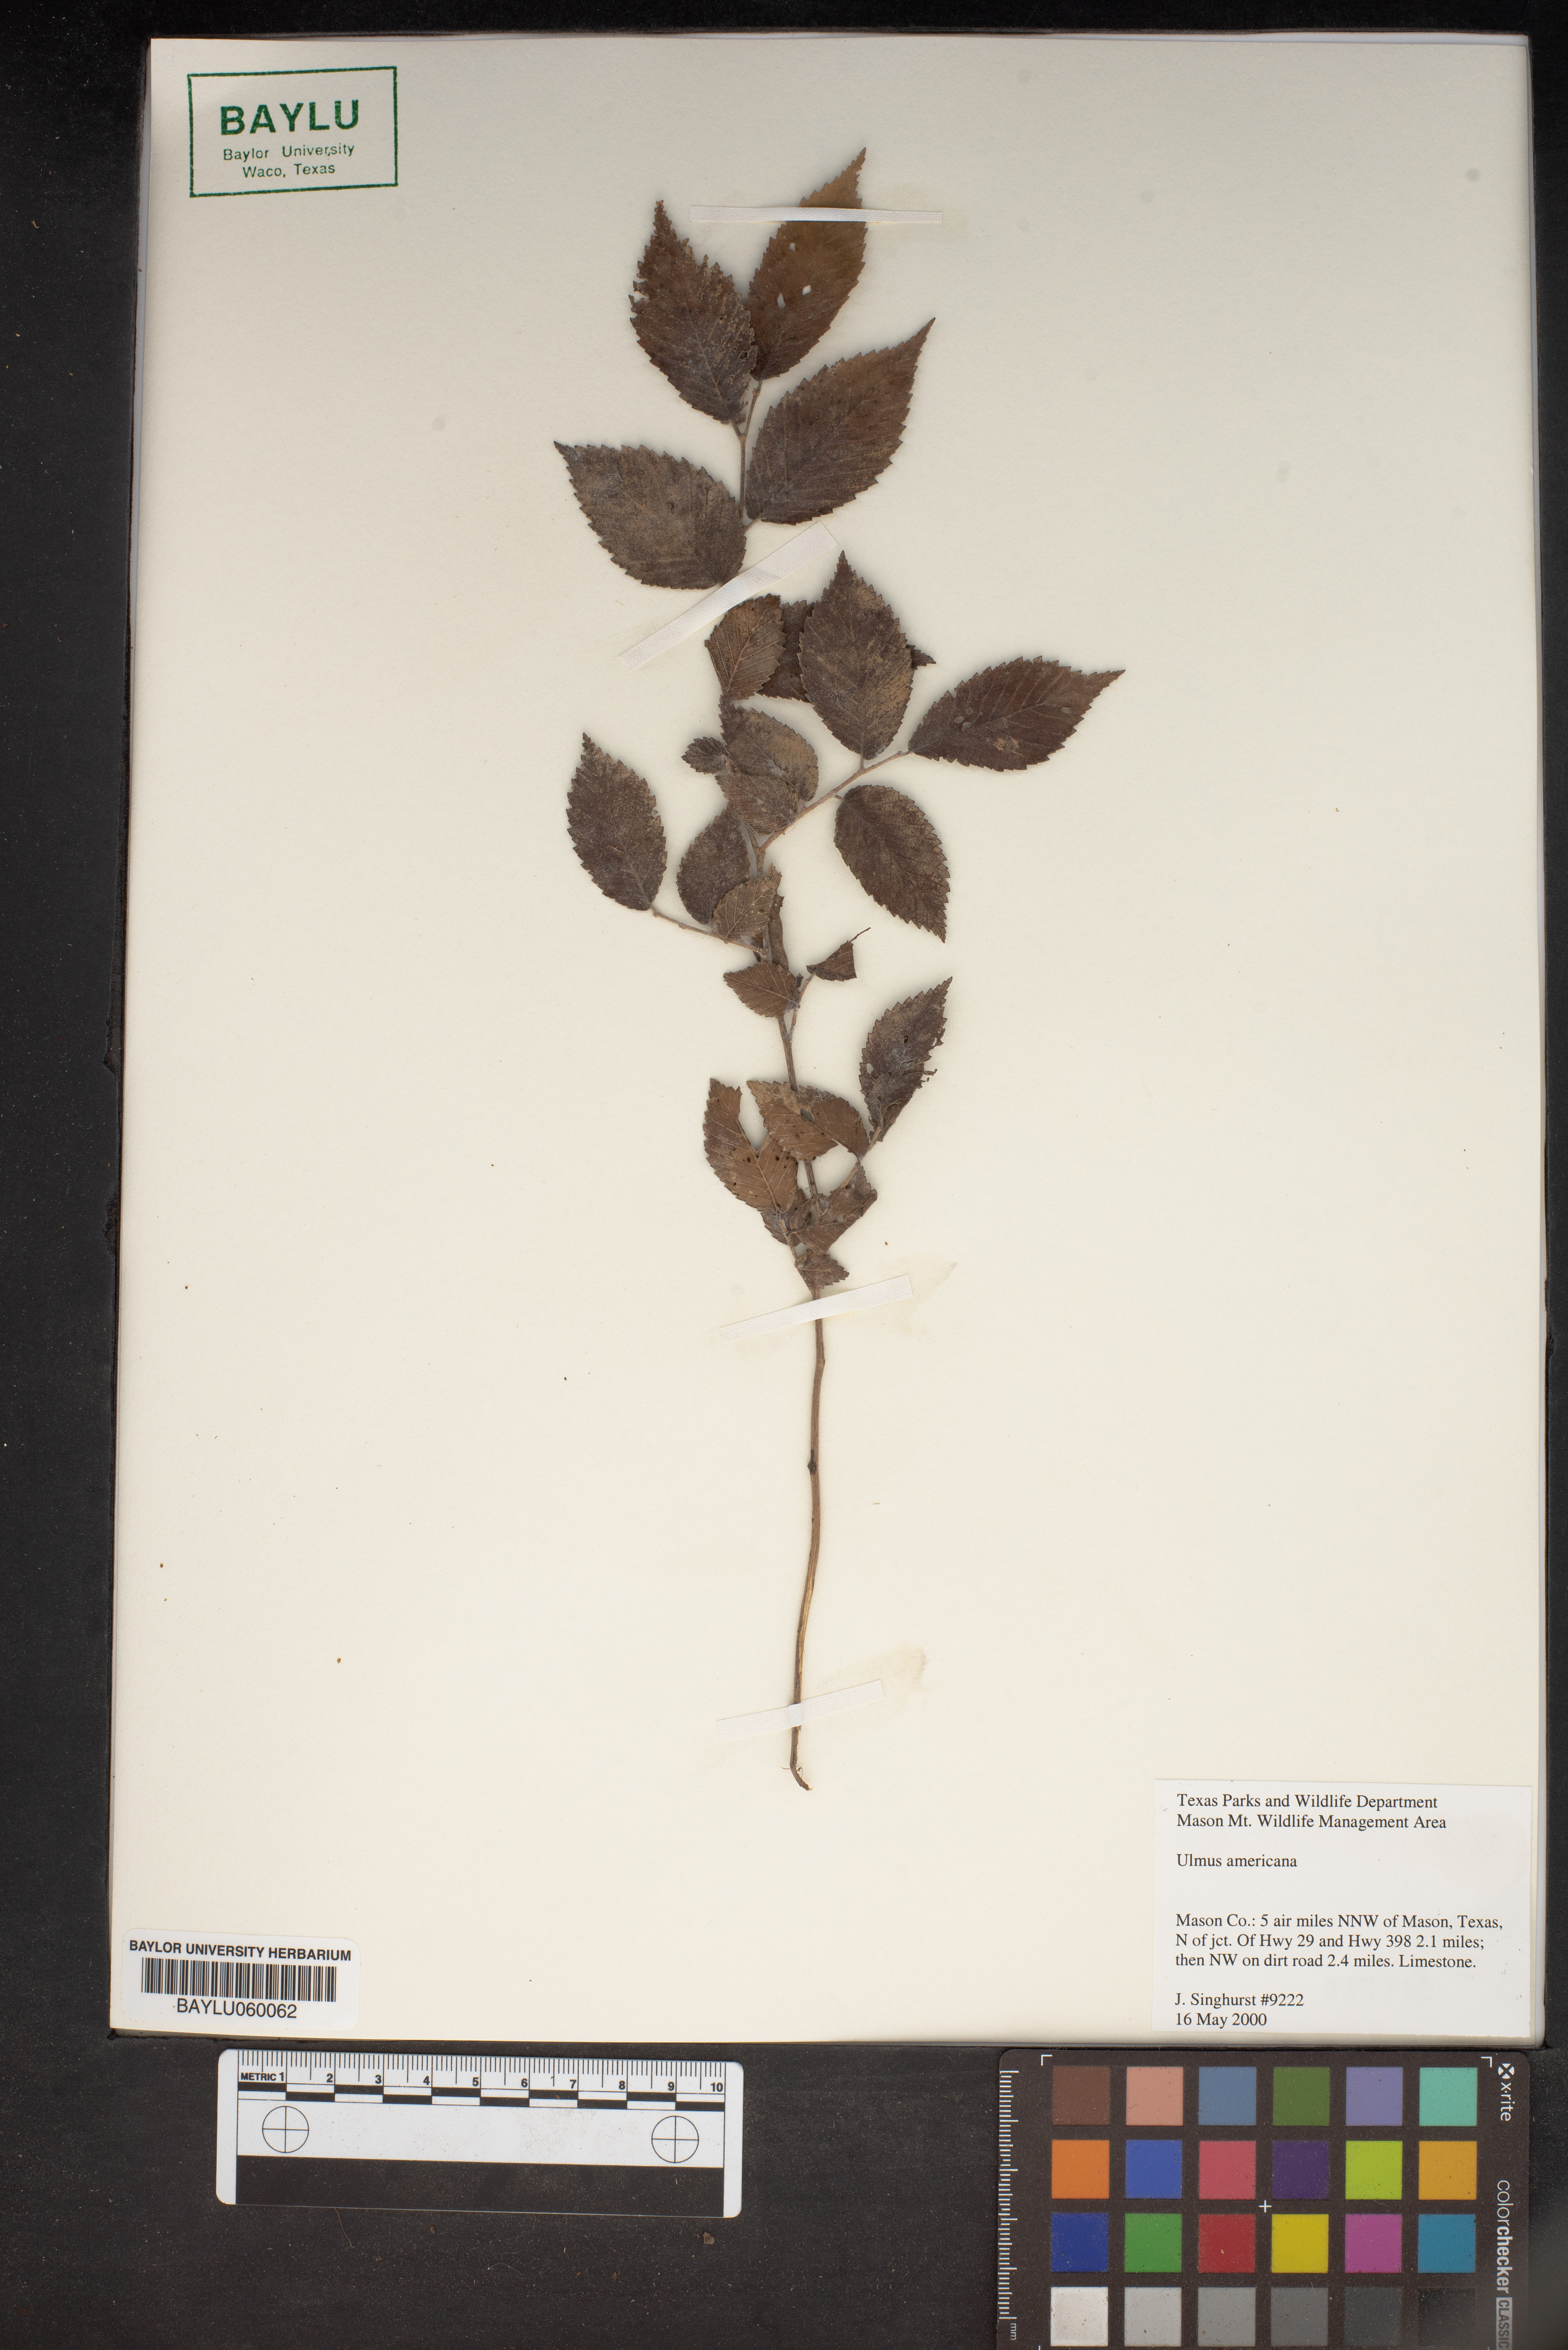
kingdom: Plantae
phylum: Tracheophyta
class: Magnoliopsida
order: Rosales
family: Ulmaceae
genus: Ulmus
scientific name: Ulmus americana
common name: American elm
